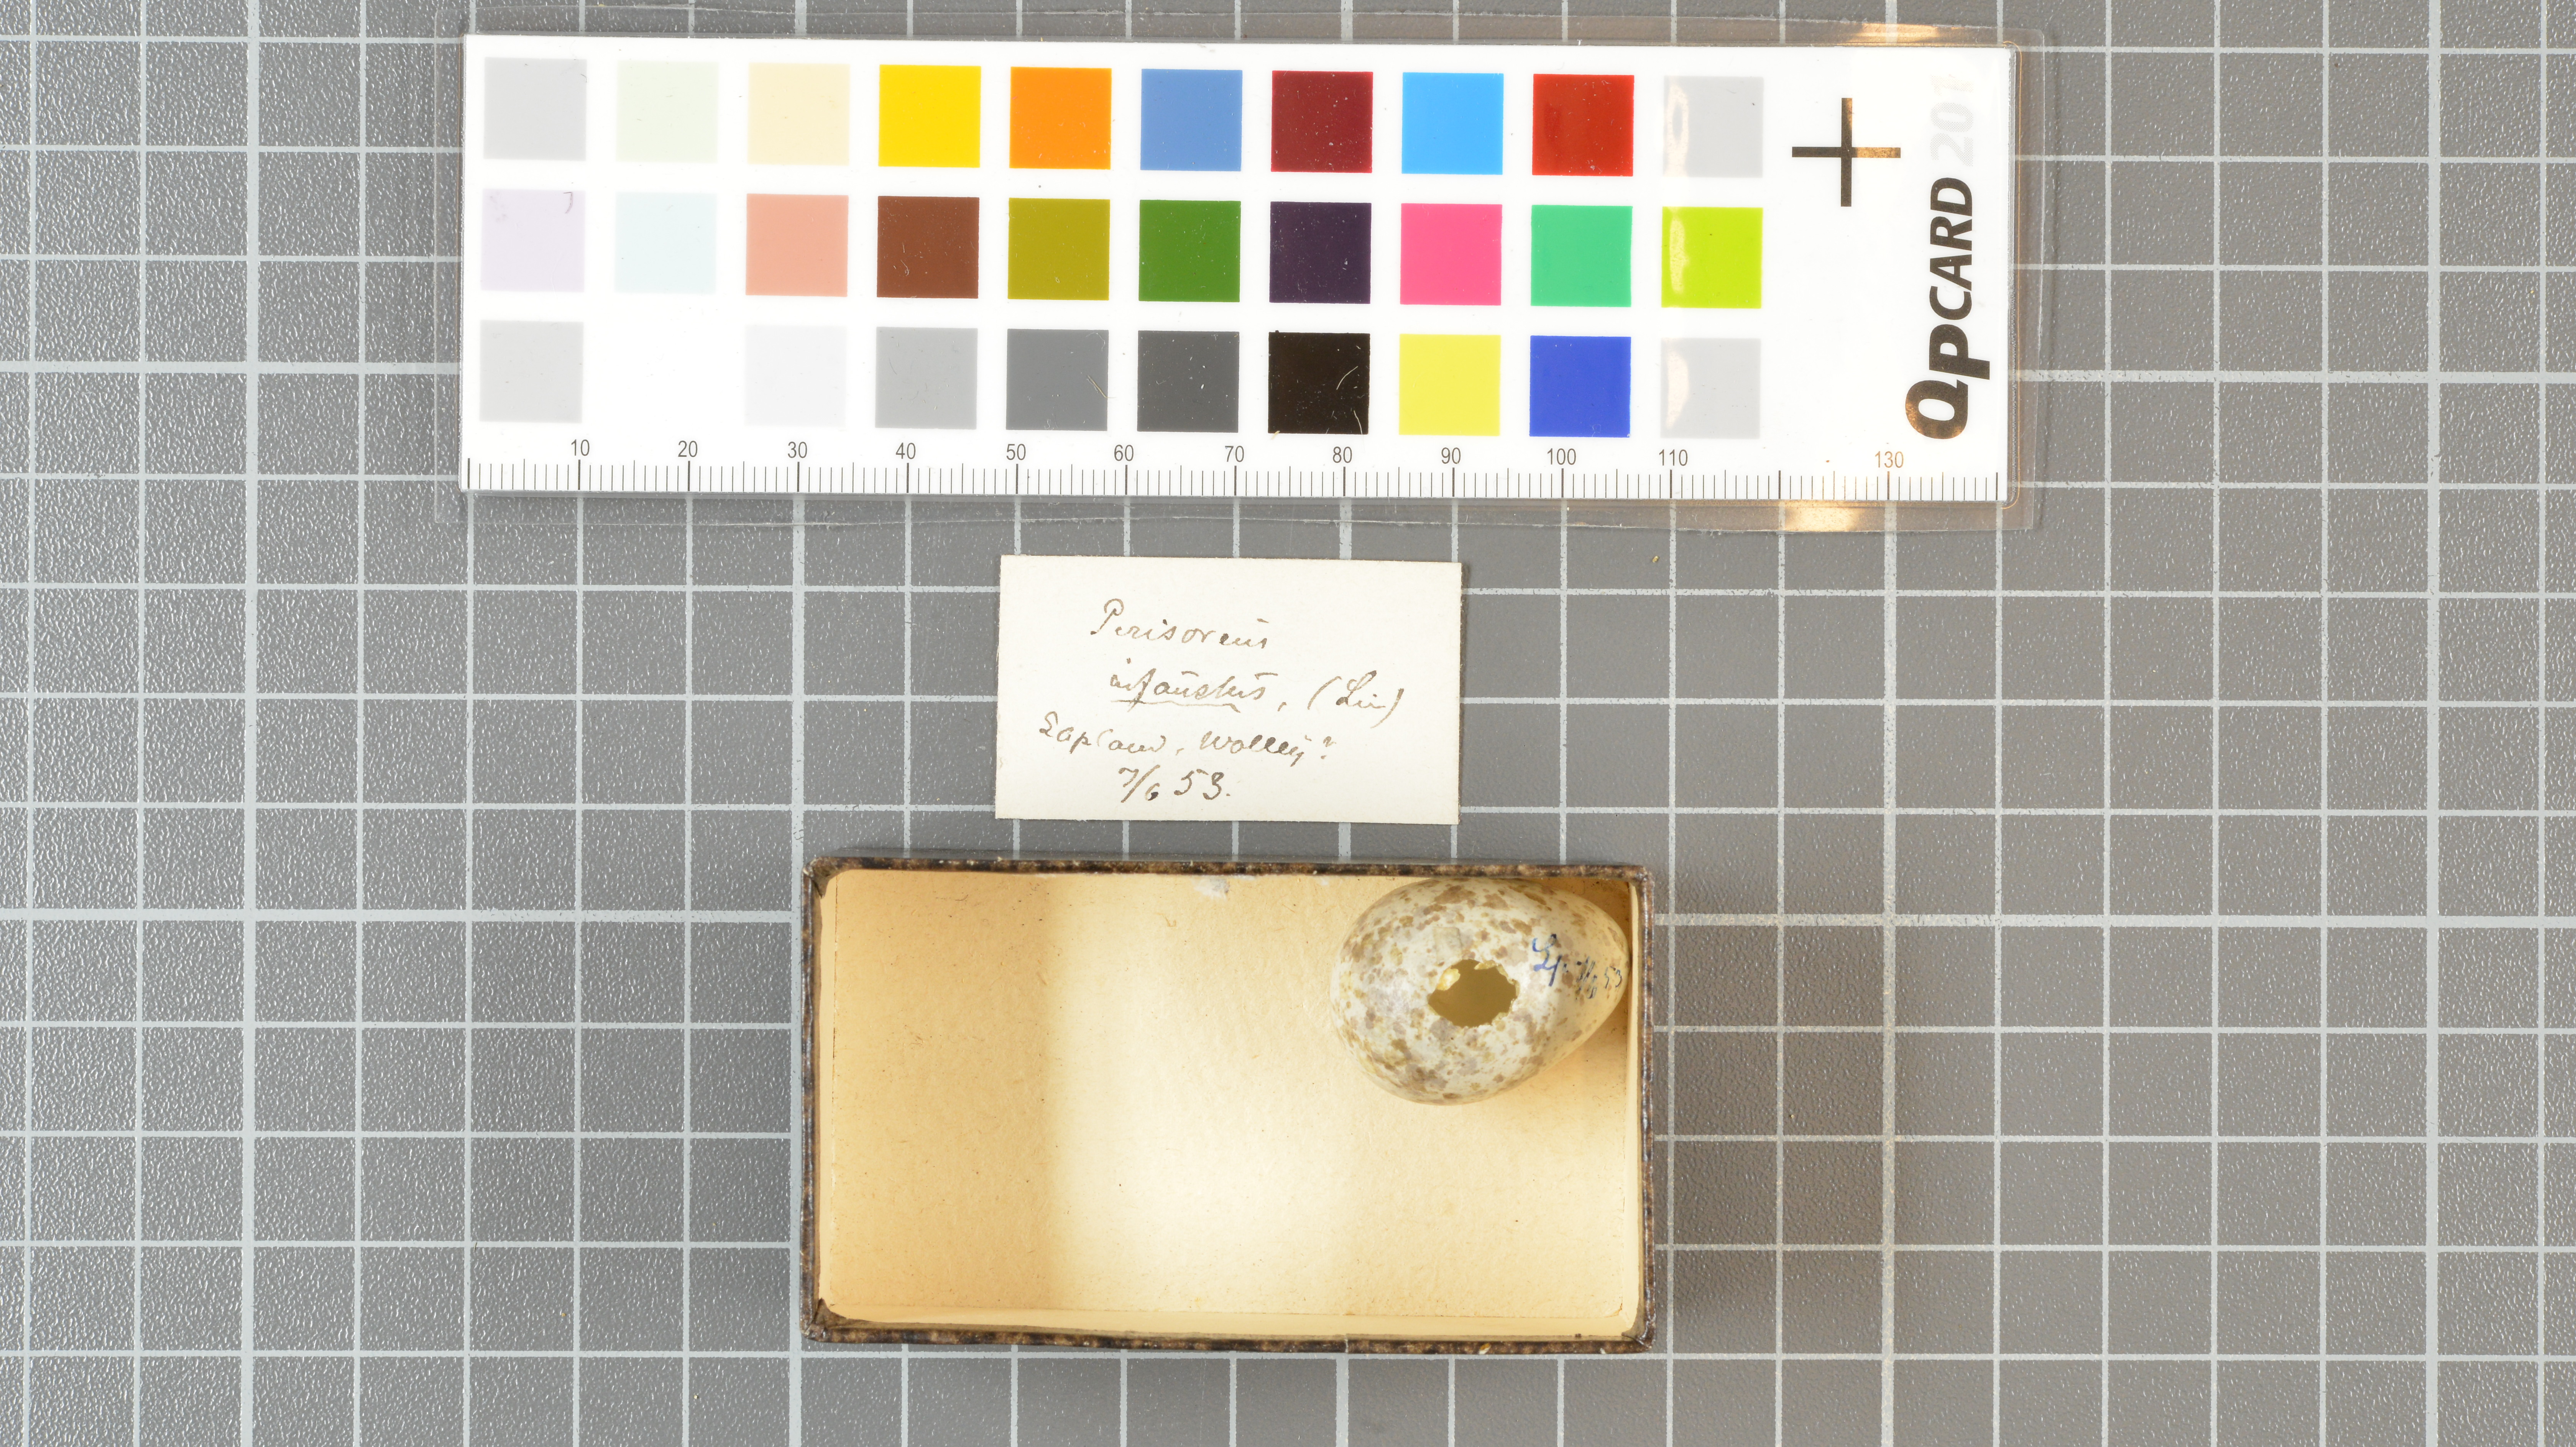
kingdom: Animalia
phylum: Chordata
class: Aves
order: Passeriformes
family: Corvidae
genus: Perisoreus
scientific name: Perisoreus infaustus
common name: Siberian jay
